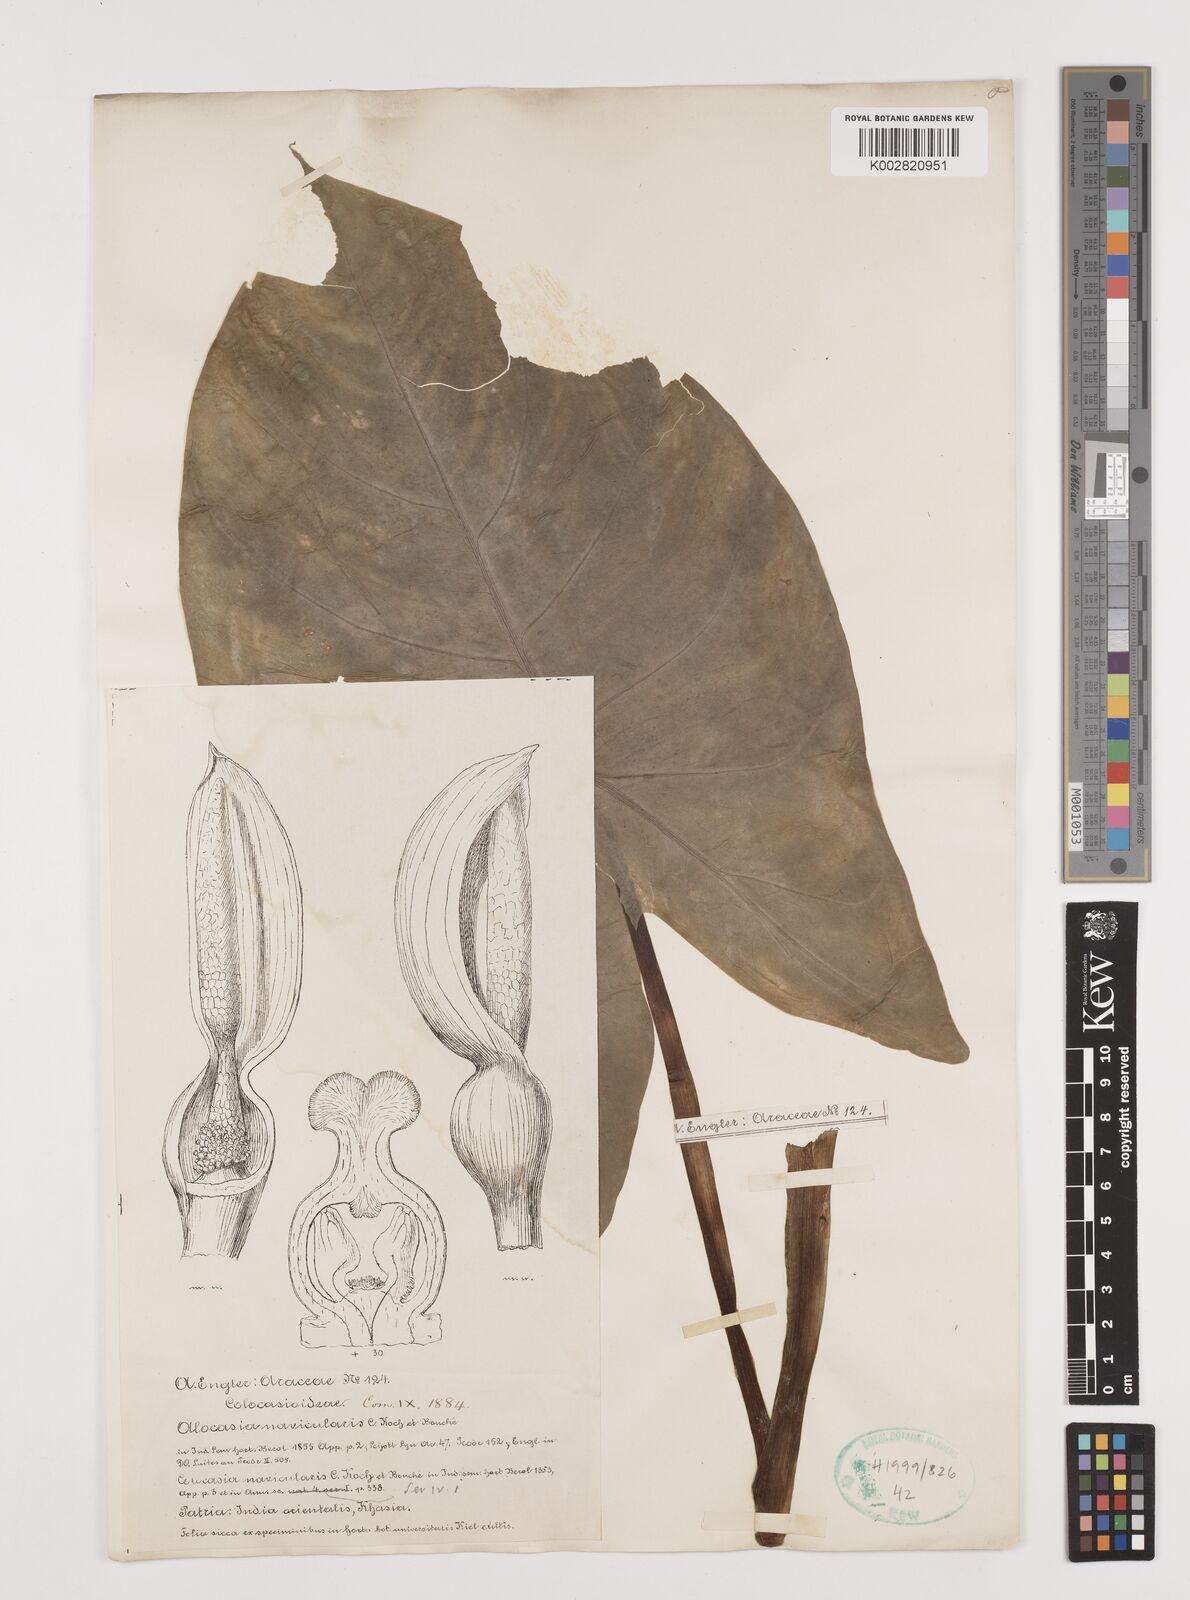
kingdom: Plantae
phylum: Tracheophyta
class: Liliopsida
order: Alismatales
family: Araceae
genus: Alocasia
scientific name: Alocasia navicularis
